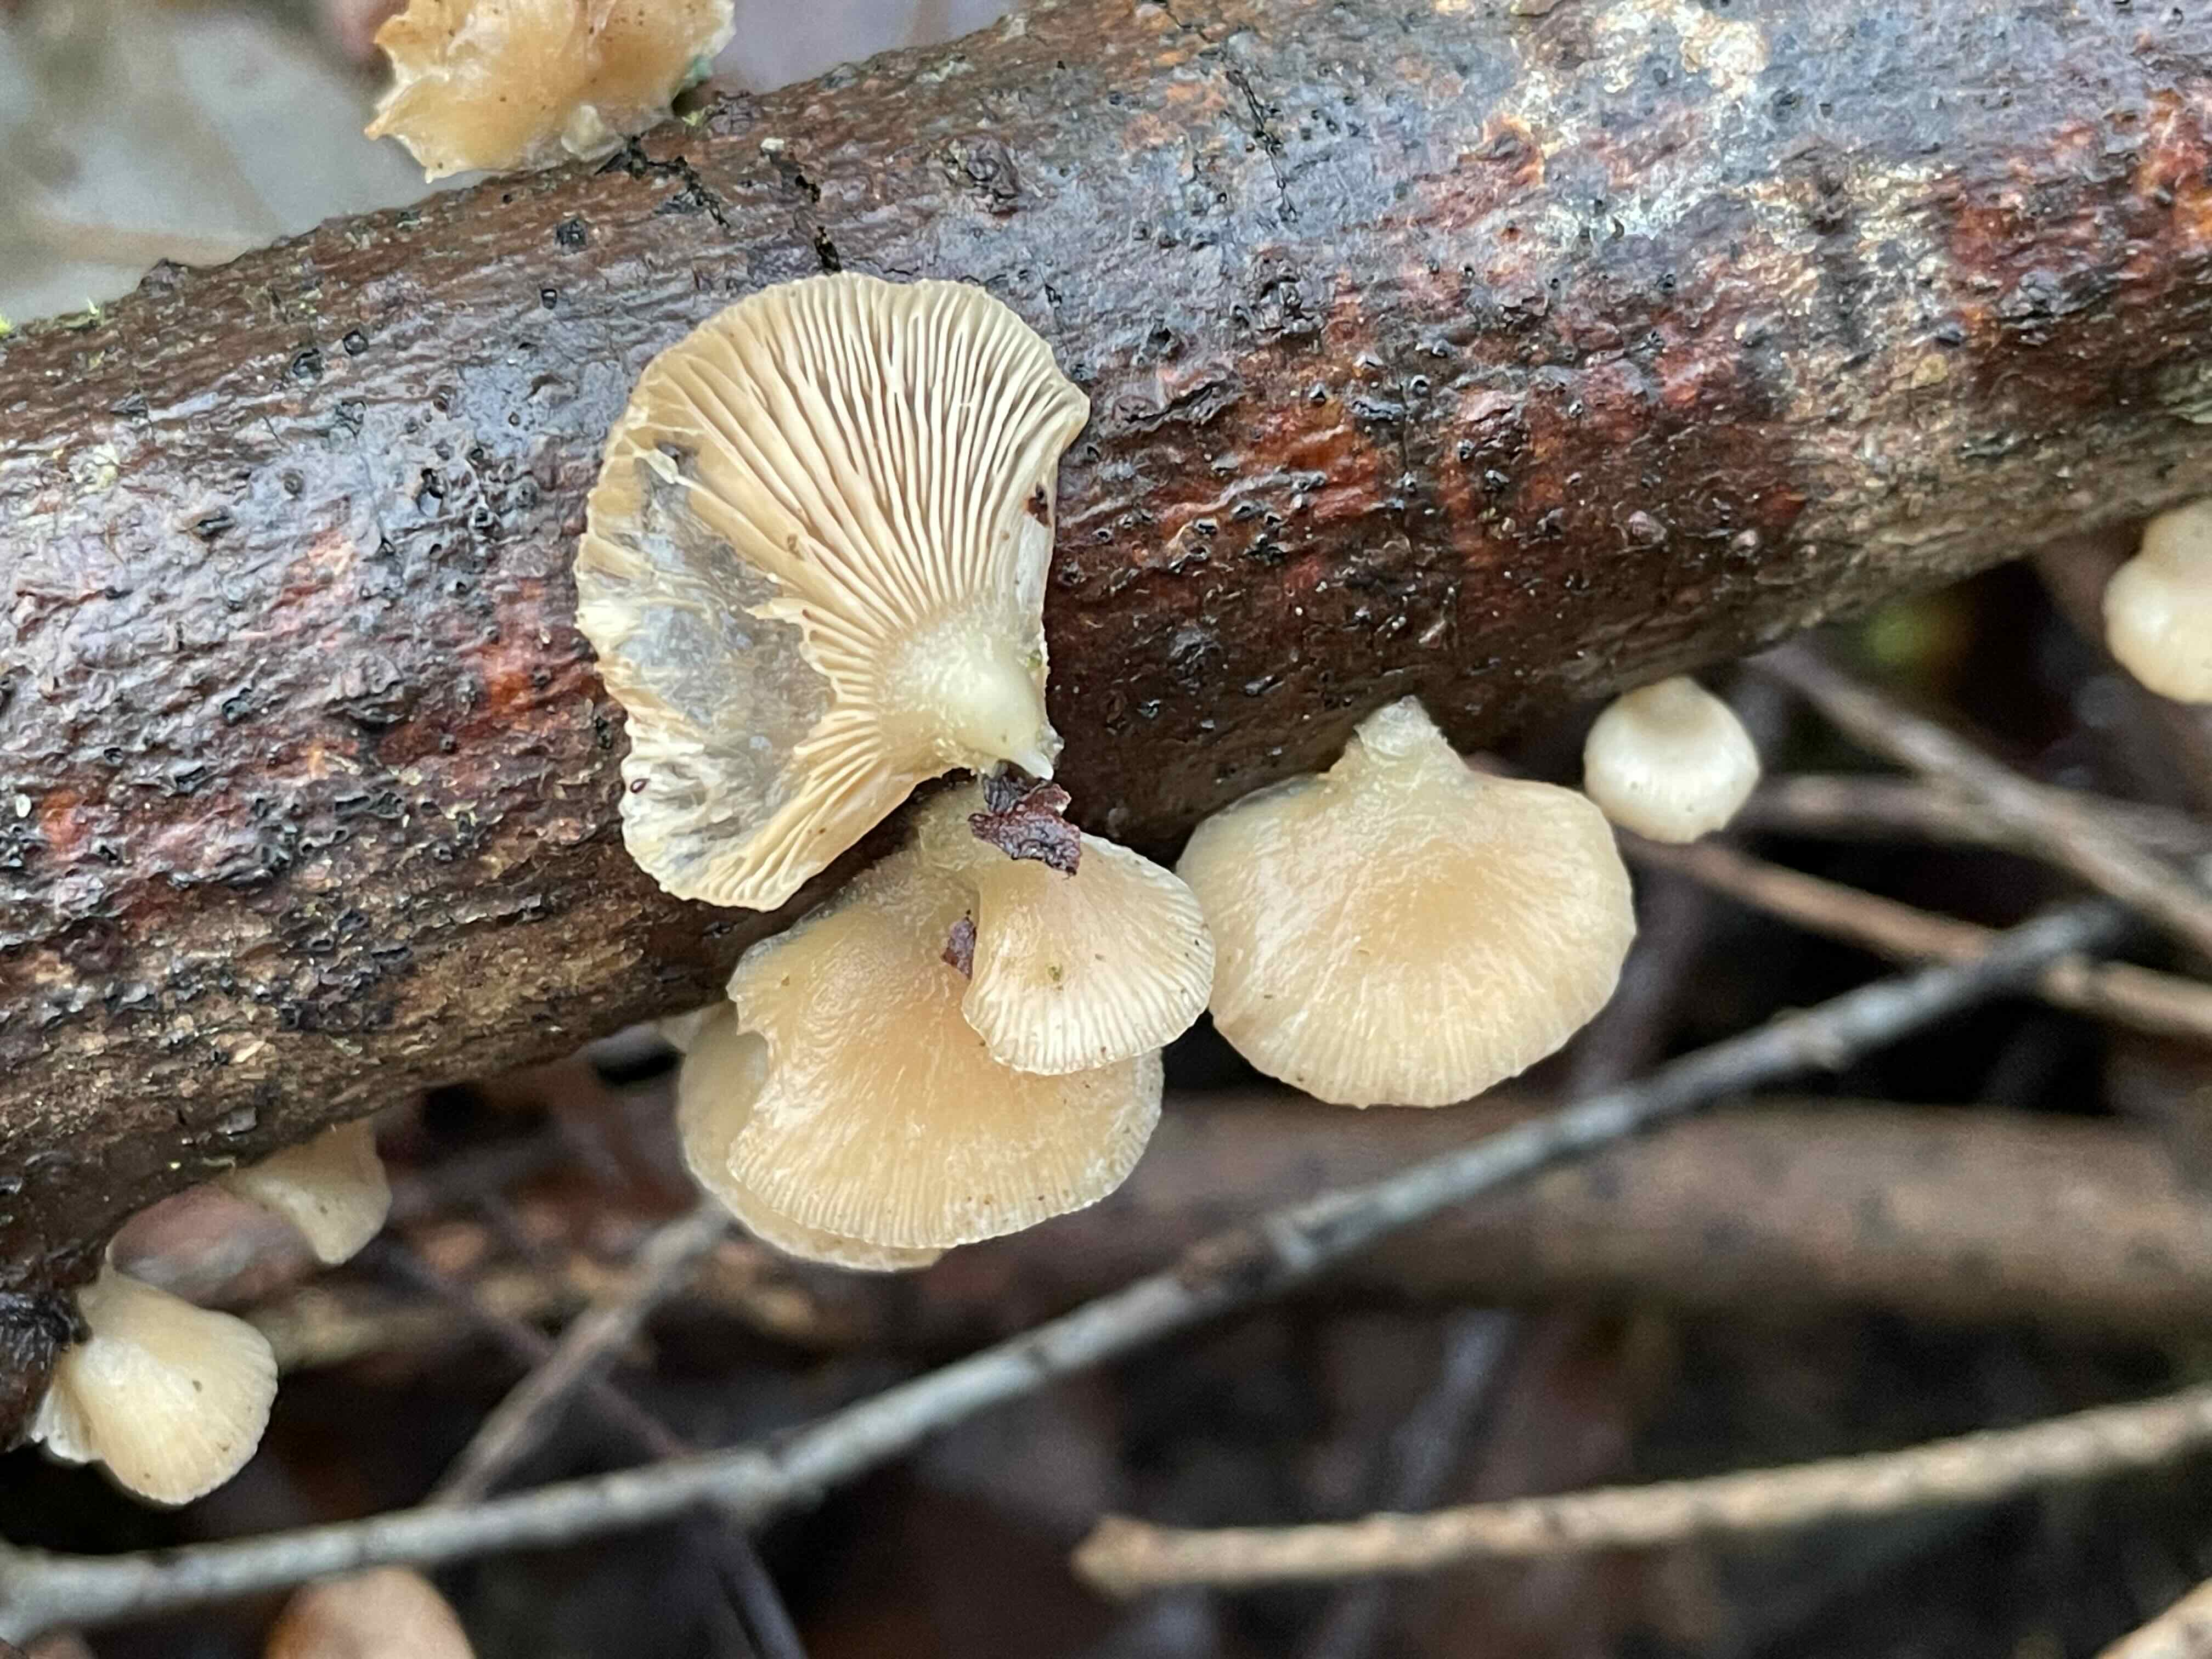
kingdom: Fungi
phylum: Basidiomycota
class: Agaricomycetes
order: Agaricales
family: Mycenaceae
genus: Panellus
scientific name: Panellus mitis
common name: mild epaulethat
